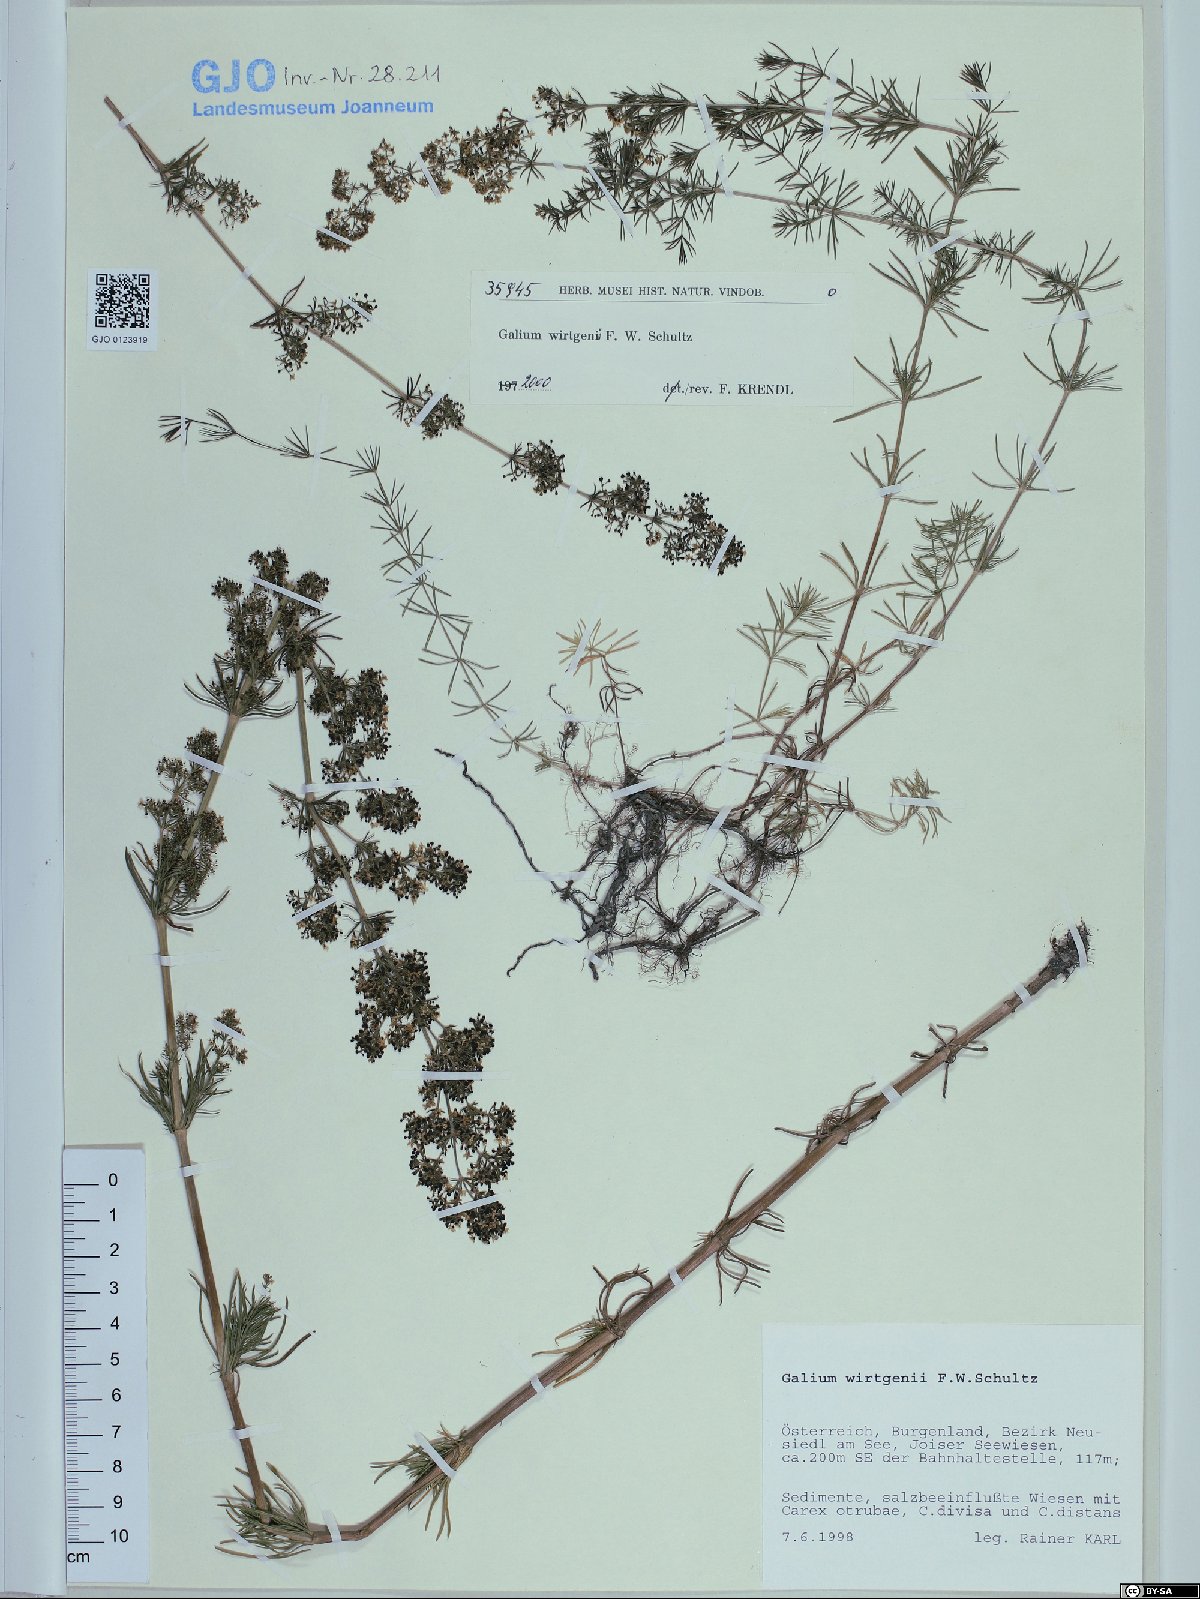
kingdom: Plantae
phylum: Tracheophyta
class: Magnoliopsida
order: Gentianales
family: Rubiaceae
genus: Galium
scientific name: Galium verum
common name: Lady's bedstraw
